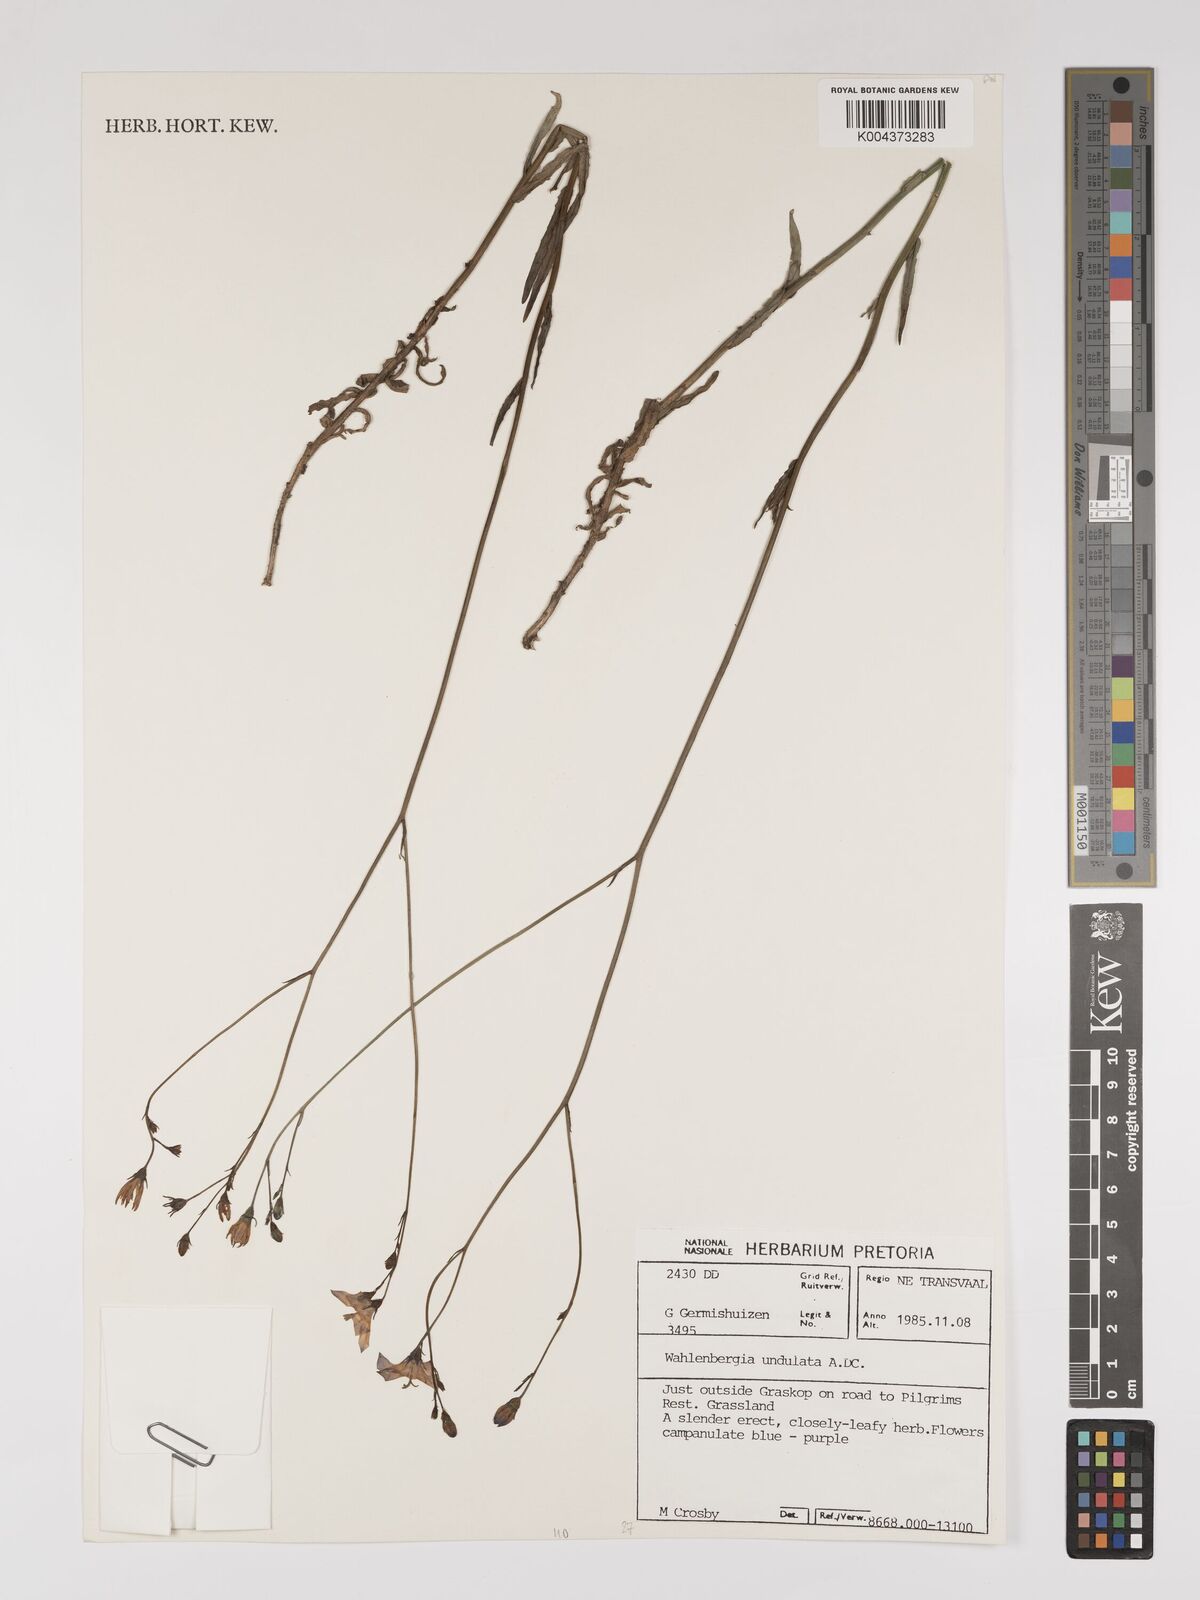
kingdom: Plantae
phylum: Tracheophyta
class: Magnoliopsida
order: Asterales
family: Campanulaceae
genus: Wahlenbergia
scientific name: Wahlenbergia undulata
